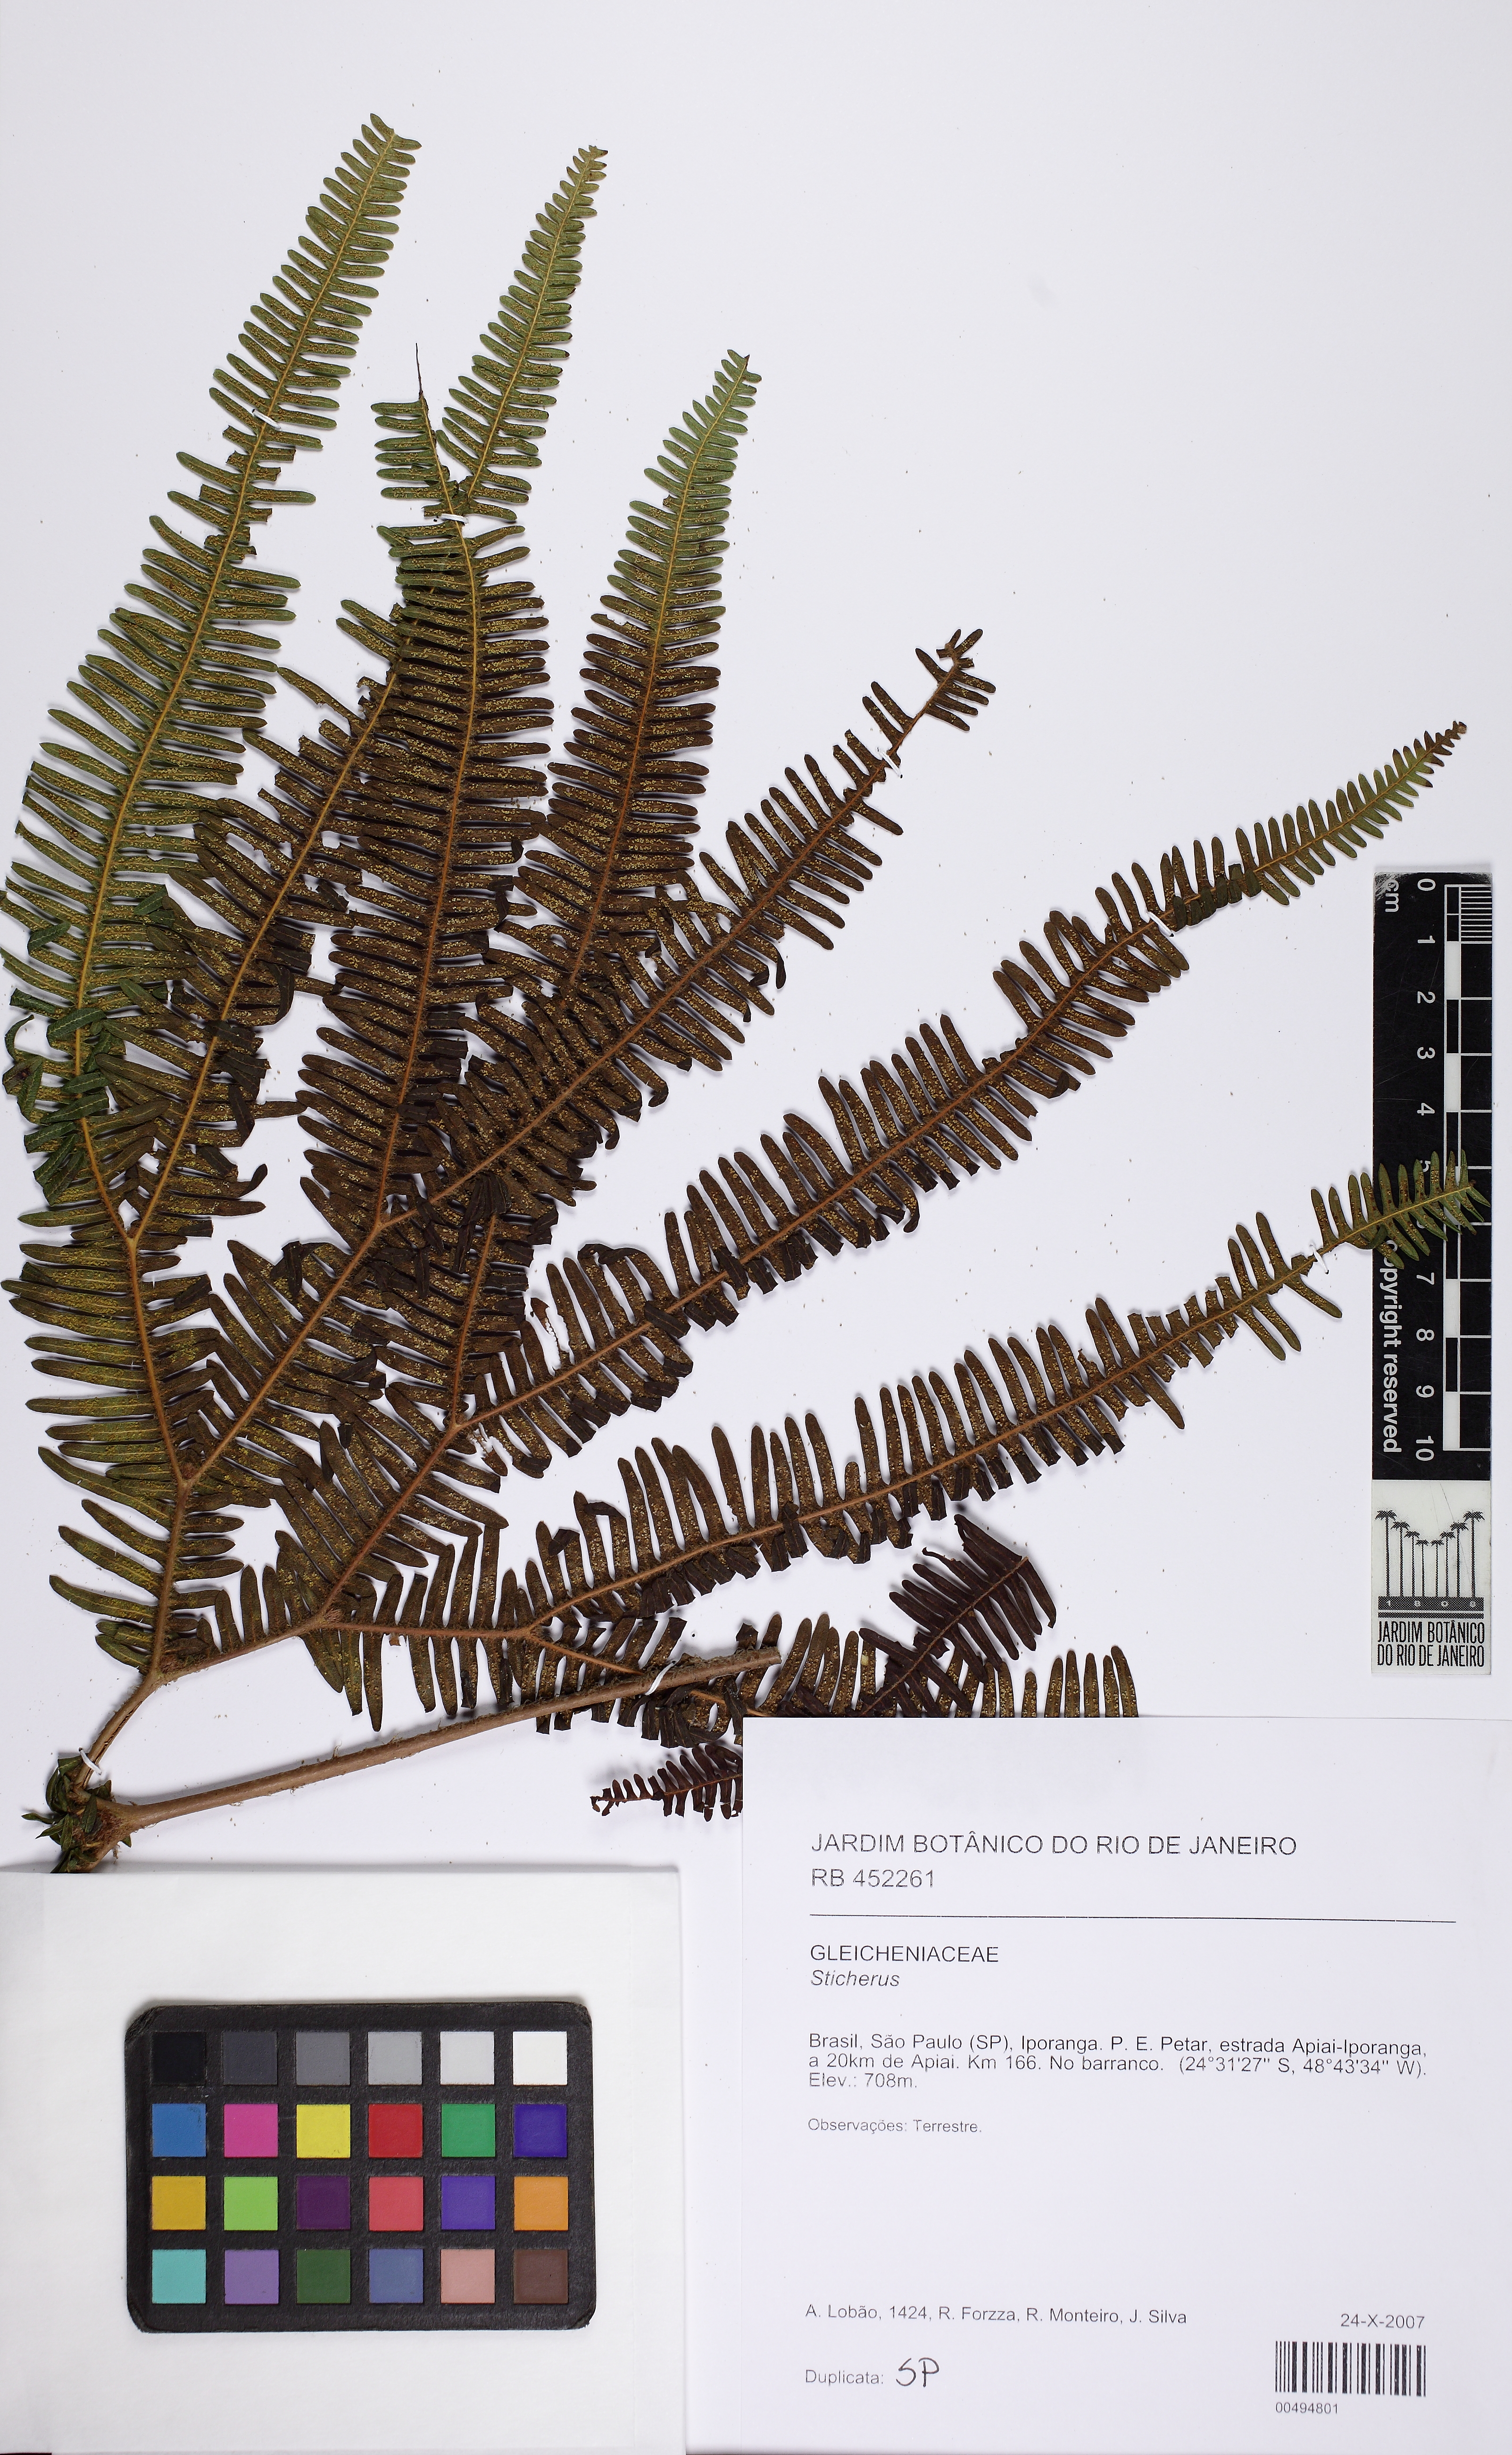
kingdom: Plantae
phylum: Tracheophyta
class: Polypodiopsida
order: Gleicheniales
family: Gleicheniaceae
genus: Sticherus
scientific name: Sticherus squamosus
